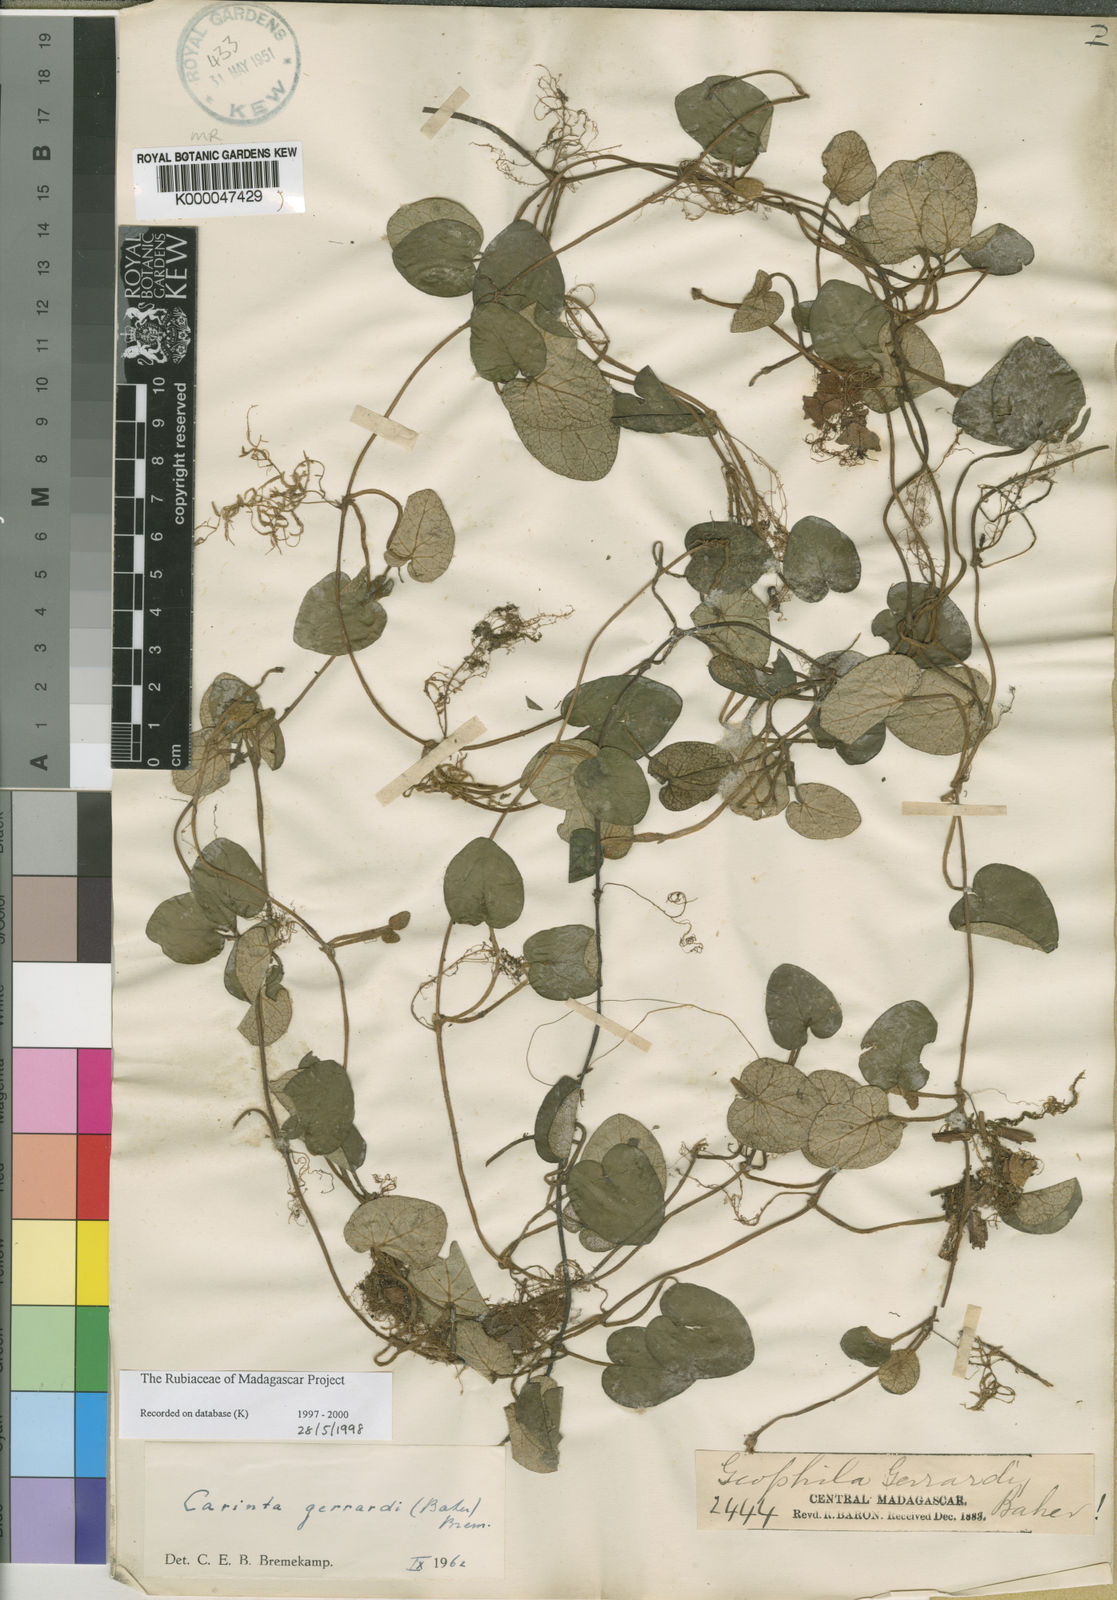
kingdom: Plantae
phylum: Tracheophyta
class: Magnoliopsida
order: Gentianales
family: Rubiaceae
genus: Puffia
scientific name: Puffia gerrardii
